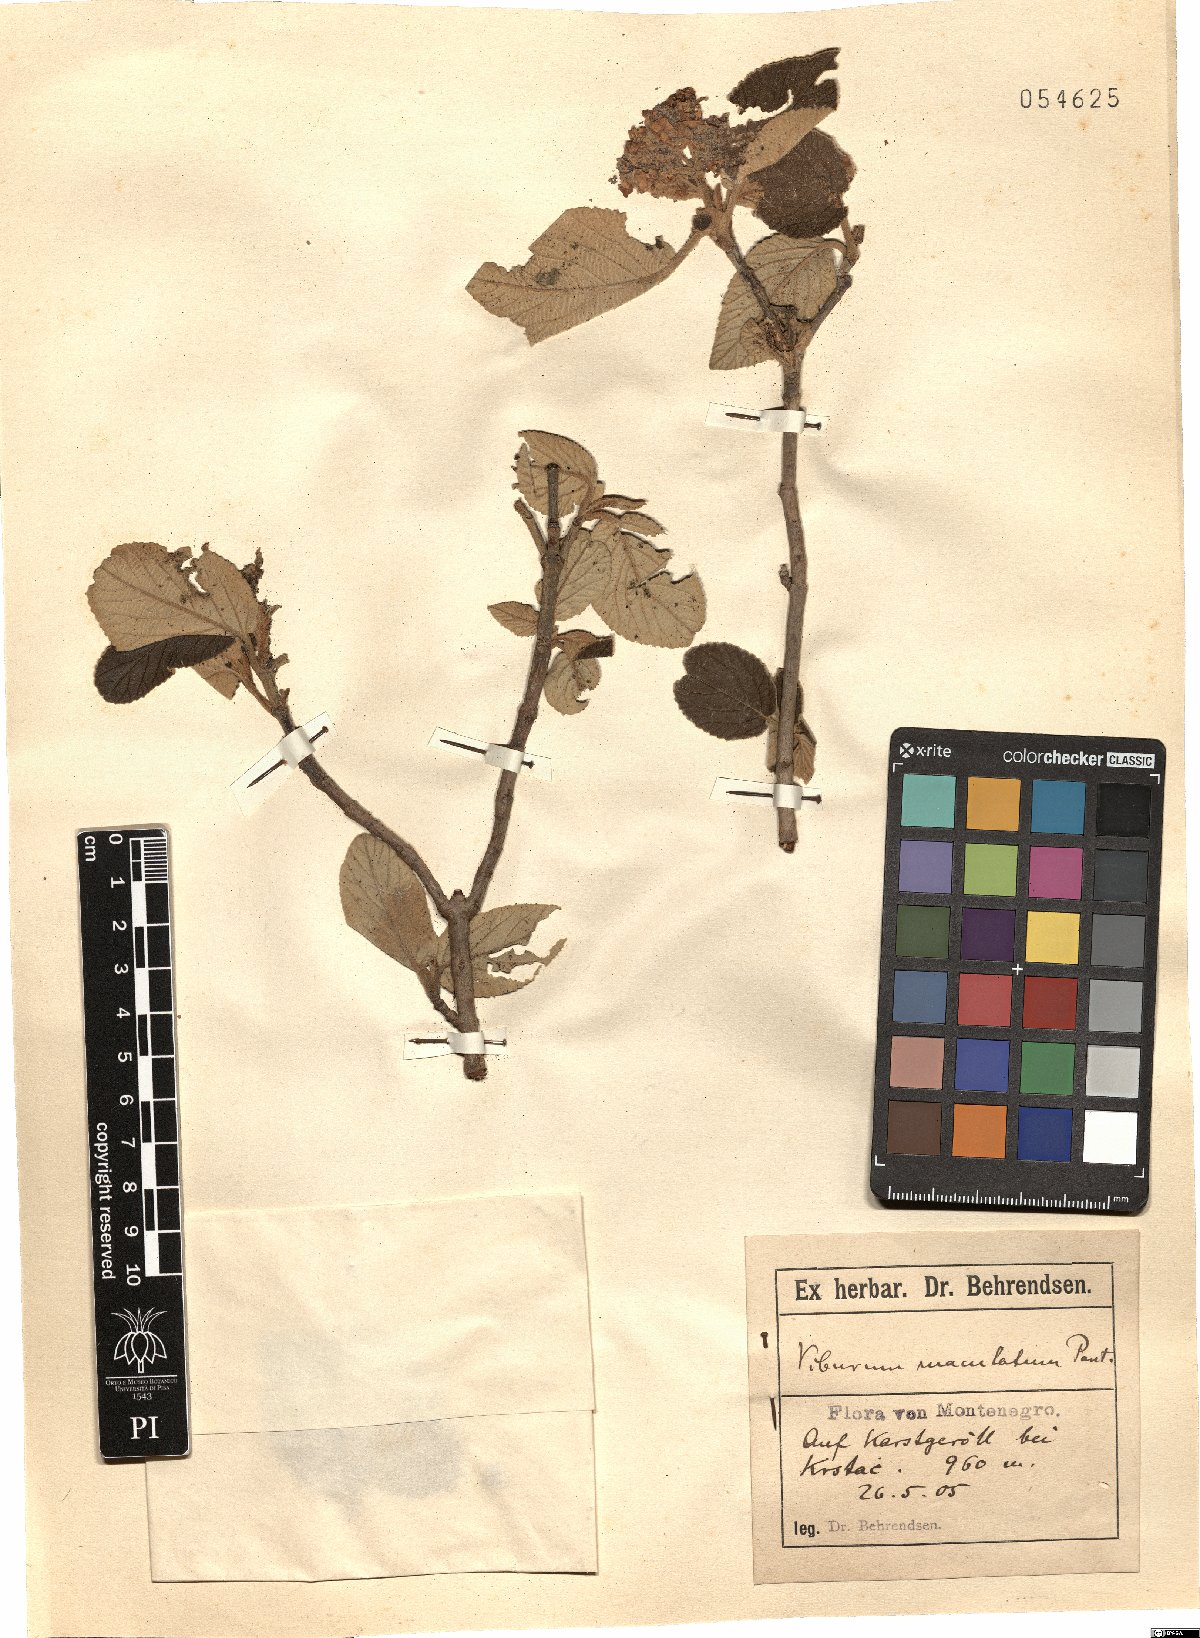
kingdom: Plantae
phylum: Tracheophyta
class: Magnoliopsida
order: Dipsacales
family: Viburnaceae
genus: Viburnum
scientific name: Viburnum lantana
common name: Wayfaring tree
